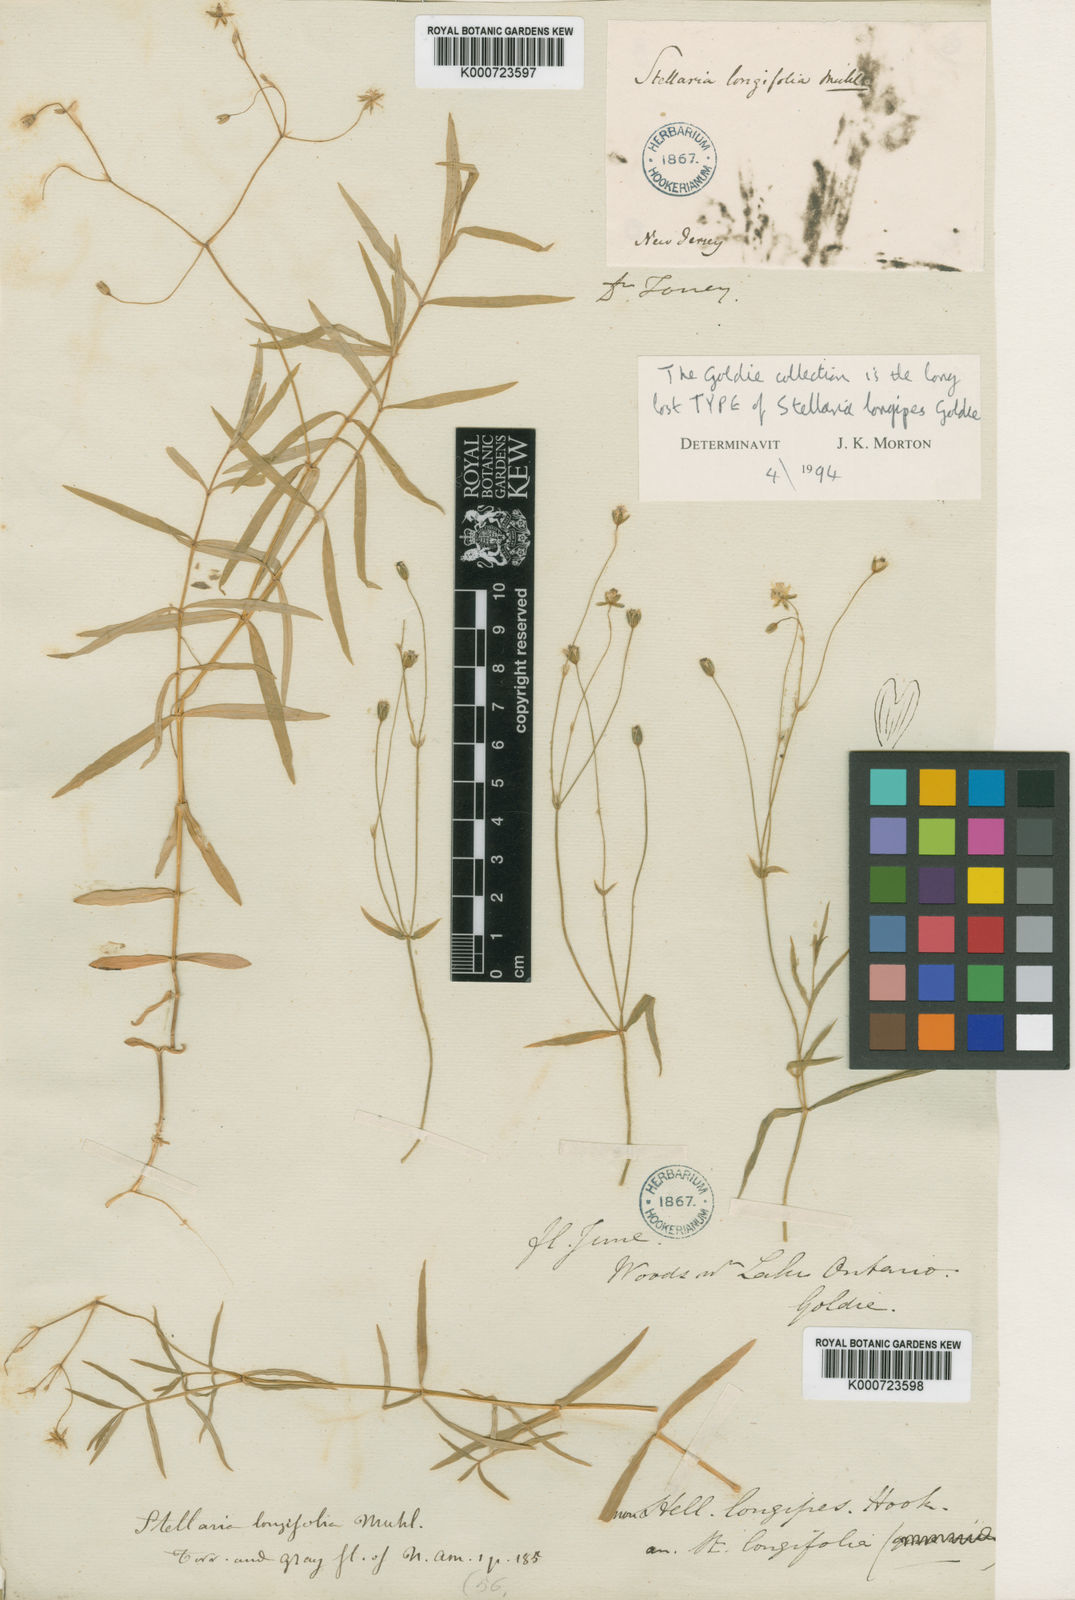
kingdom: Plantae
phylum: Tracheophyta
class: Magnoliopsida
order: Caryophyllales
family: Caryophyllaceae
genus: Stellaria
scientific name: Stellaria longipes
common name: Goldie's starwort
